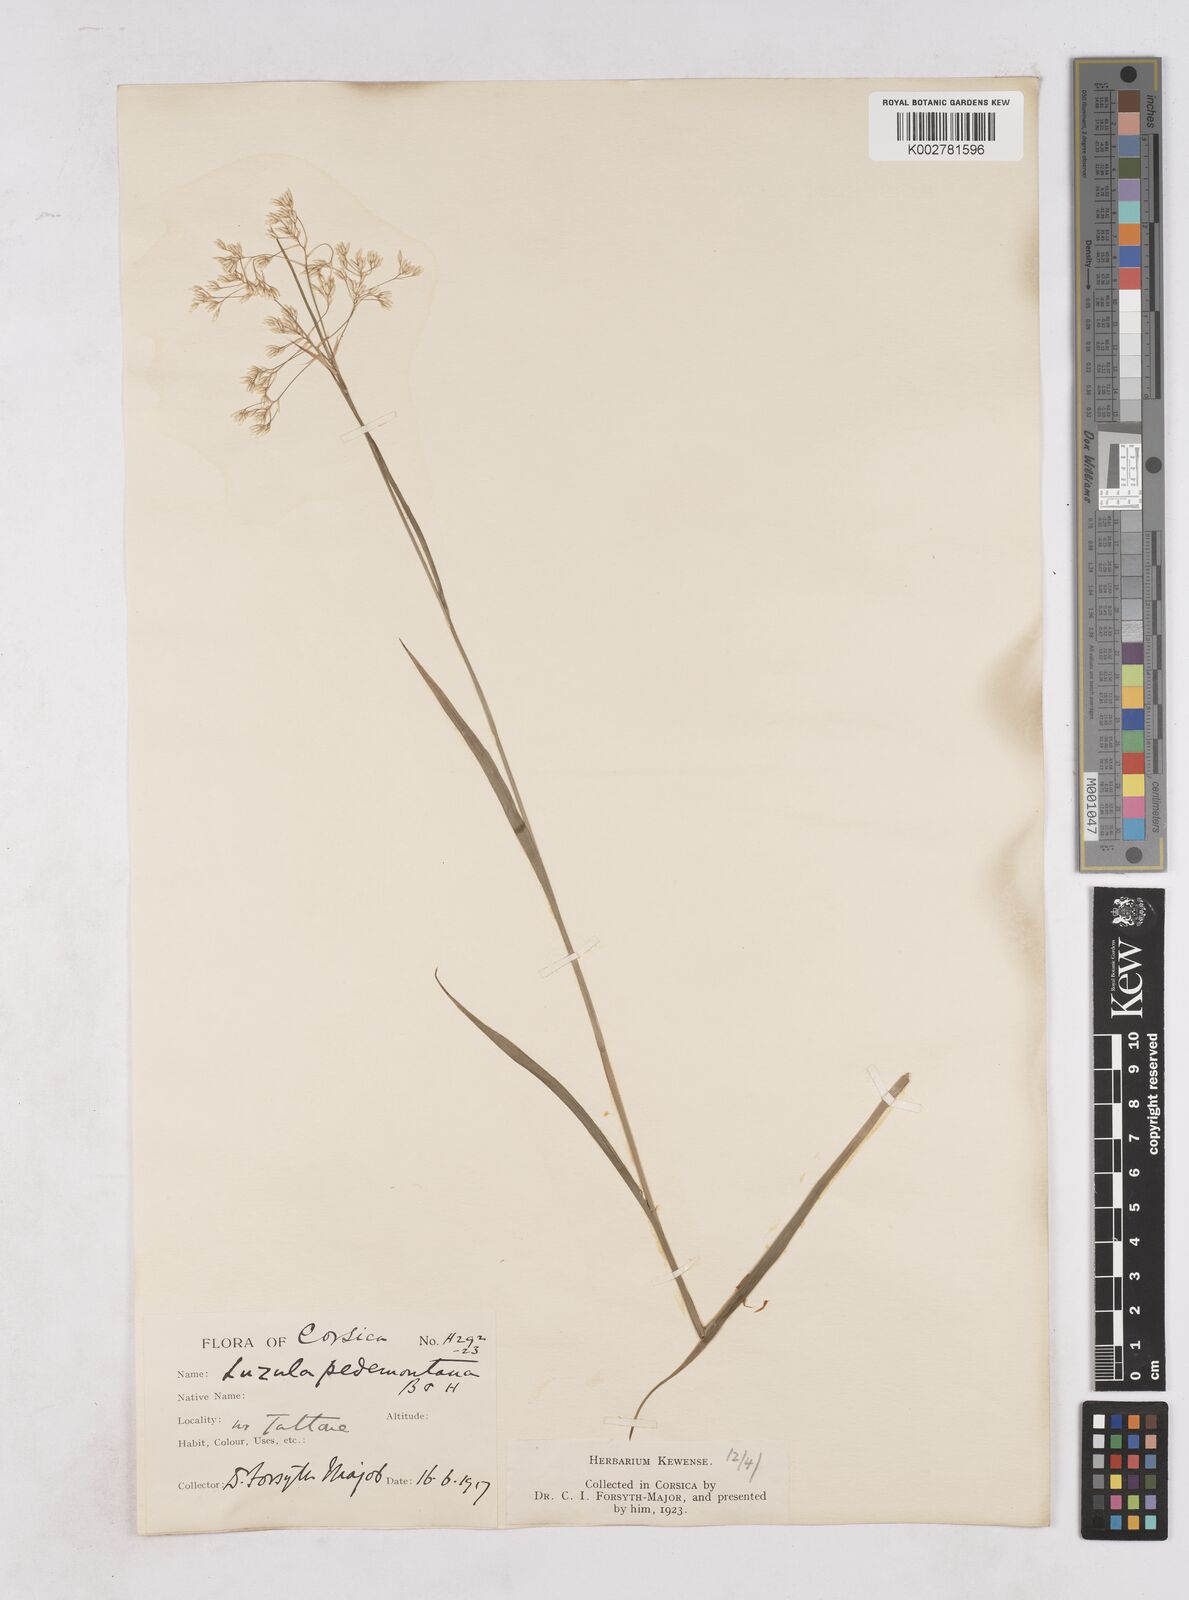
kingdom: Plantae
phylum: Tracheophyta
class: Liliopsida
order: Poales
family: Juncaceae
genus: Luzula
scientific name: Luzula pedemontana
